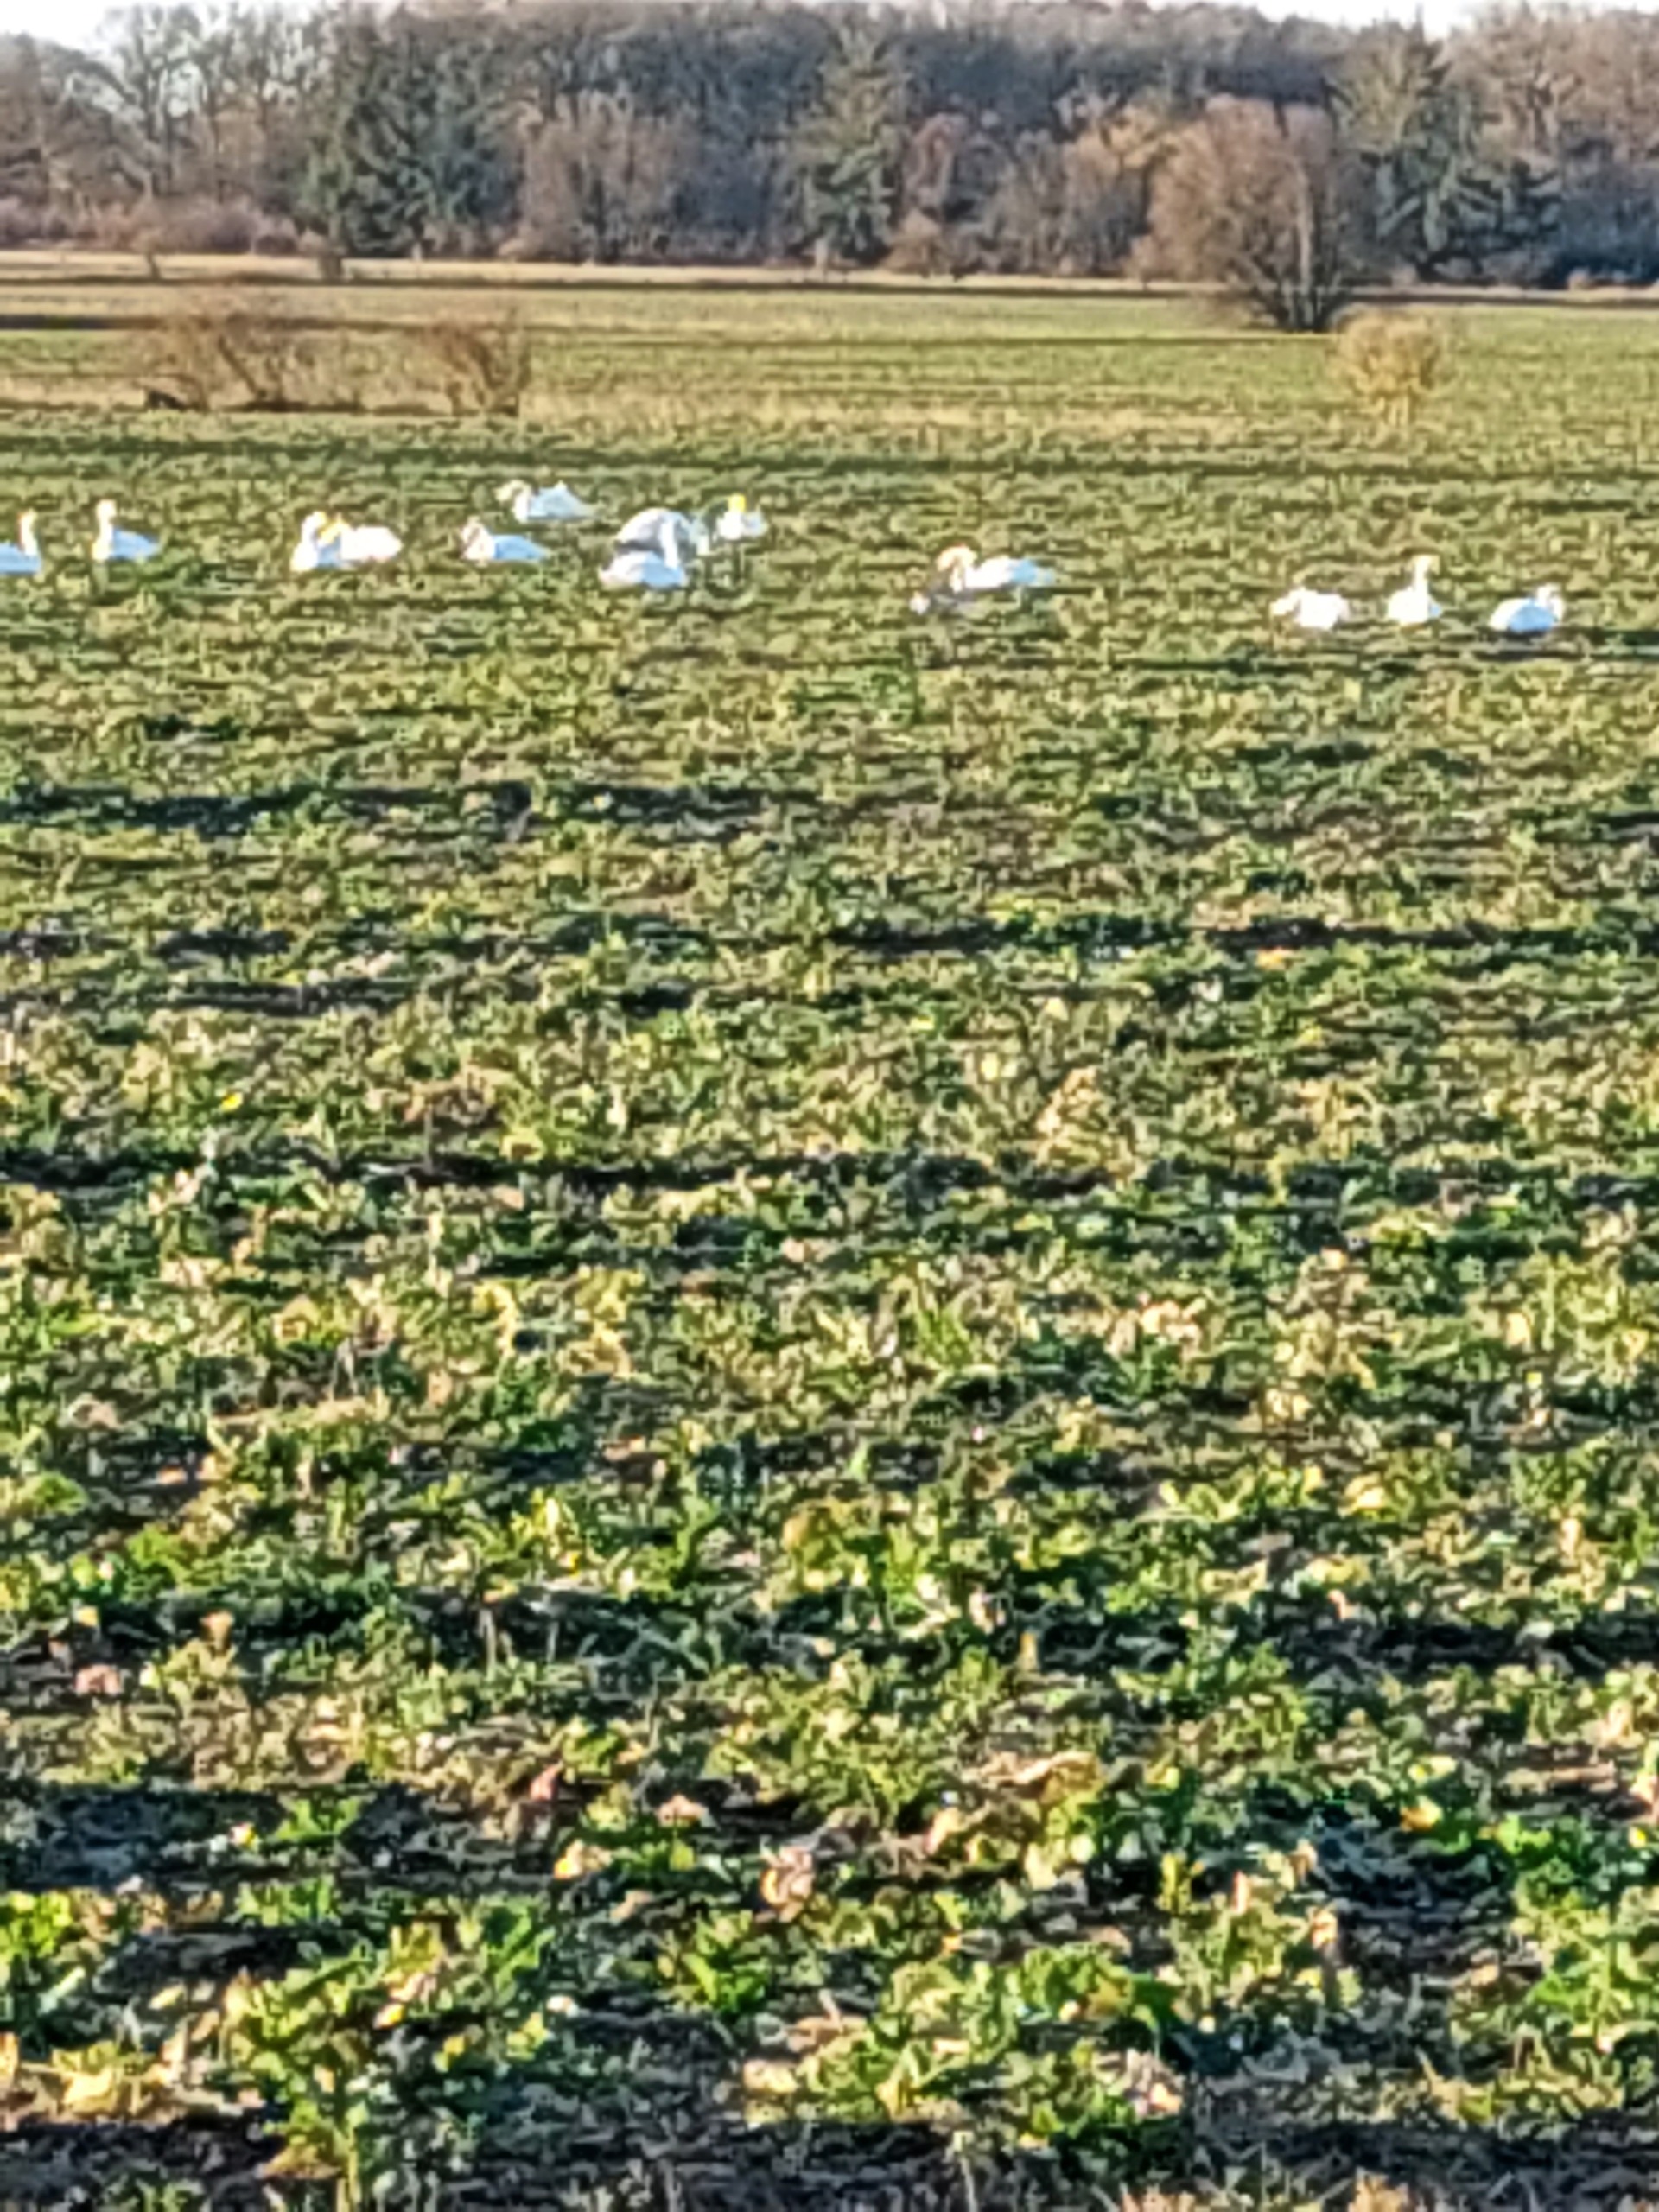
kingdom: Animalia
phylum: Chordata
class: Aves
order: Anseriformes
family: Anatidae
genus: Cygnus
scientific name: Cygnus olor
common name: Knopsvane
